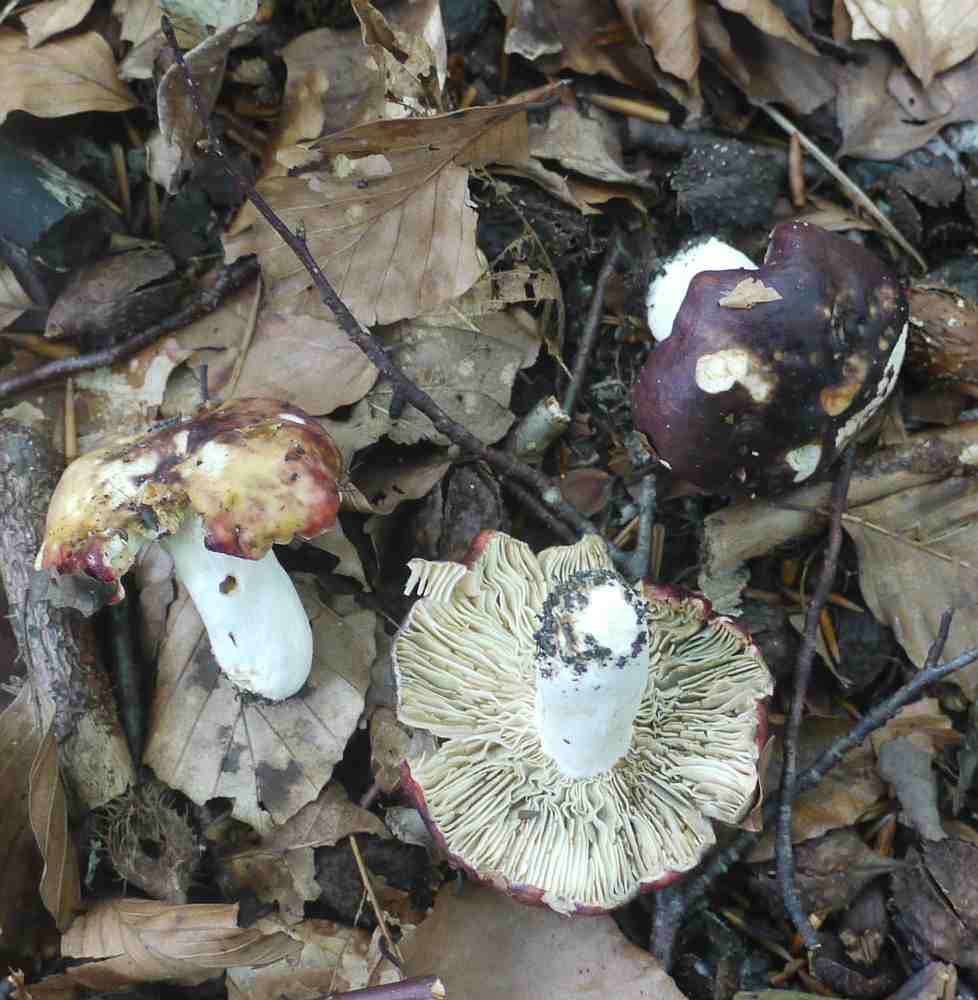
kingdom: Fungi
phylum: Basidiomycota
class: Agaricomycetes
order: Russulales
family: Russulaceae
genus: Russula
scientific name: Russula atropurpurea
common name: purpurbroget skørhat
